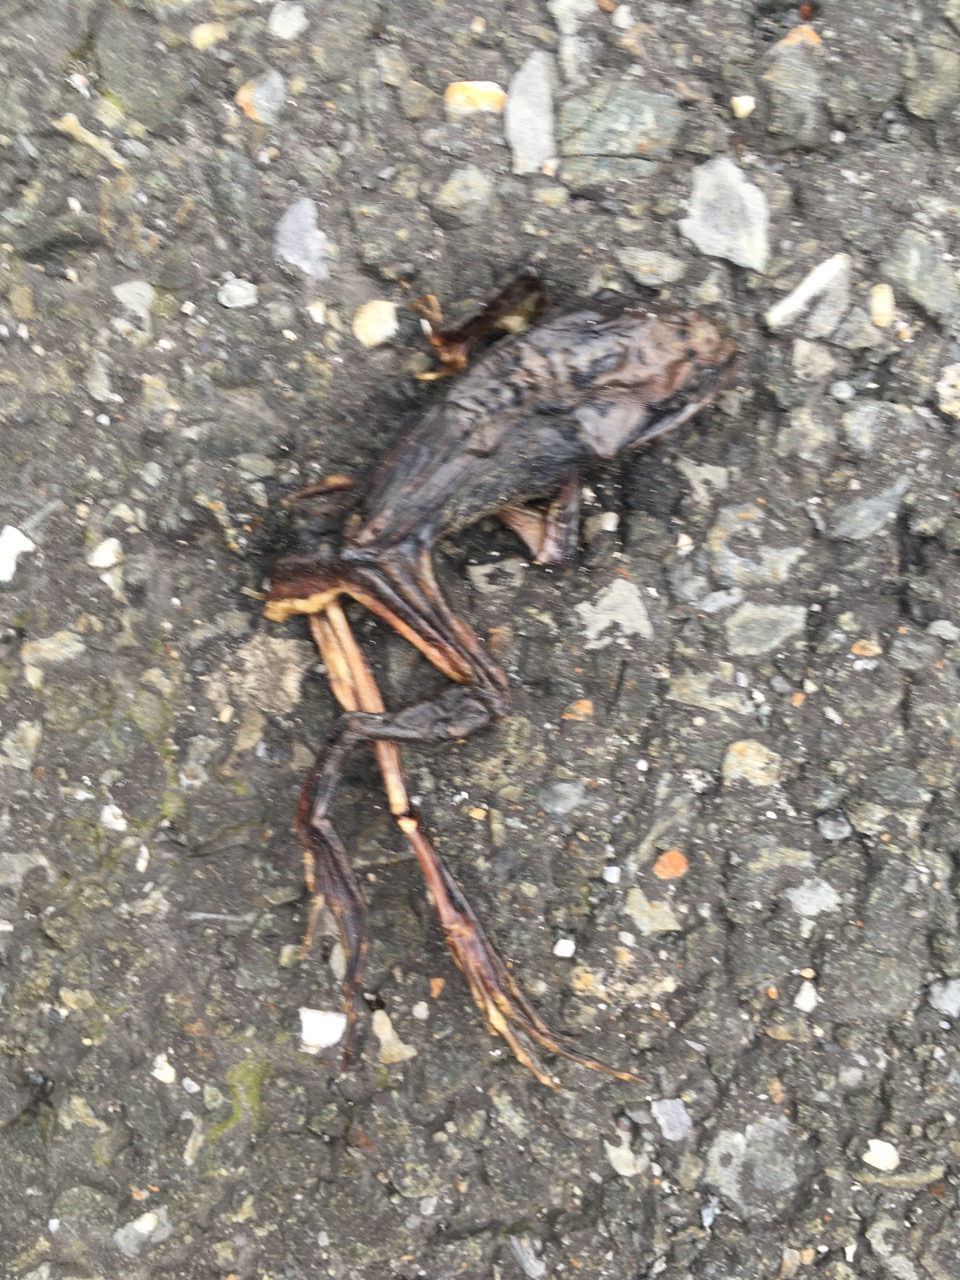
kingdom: Animalia
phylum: Chordata
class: Amphibia
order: Anura
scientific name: Anura
